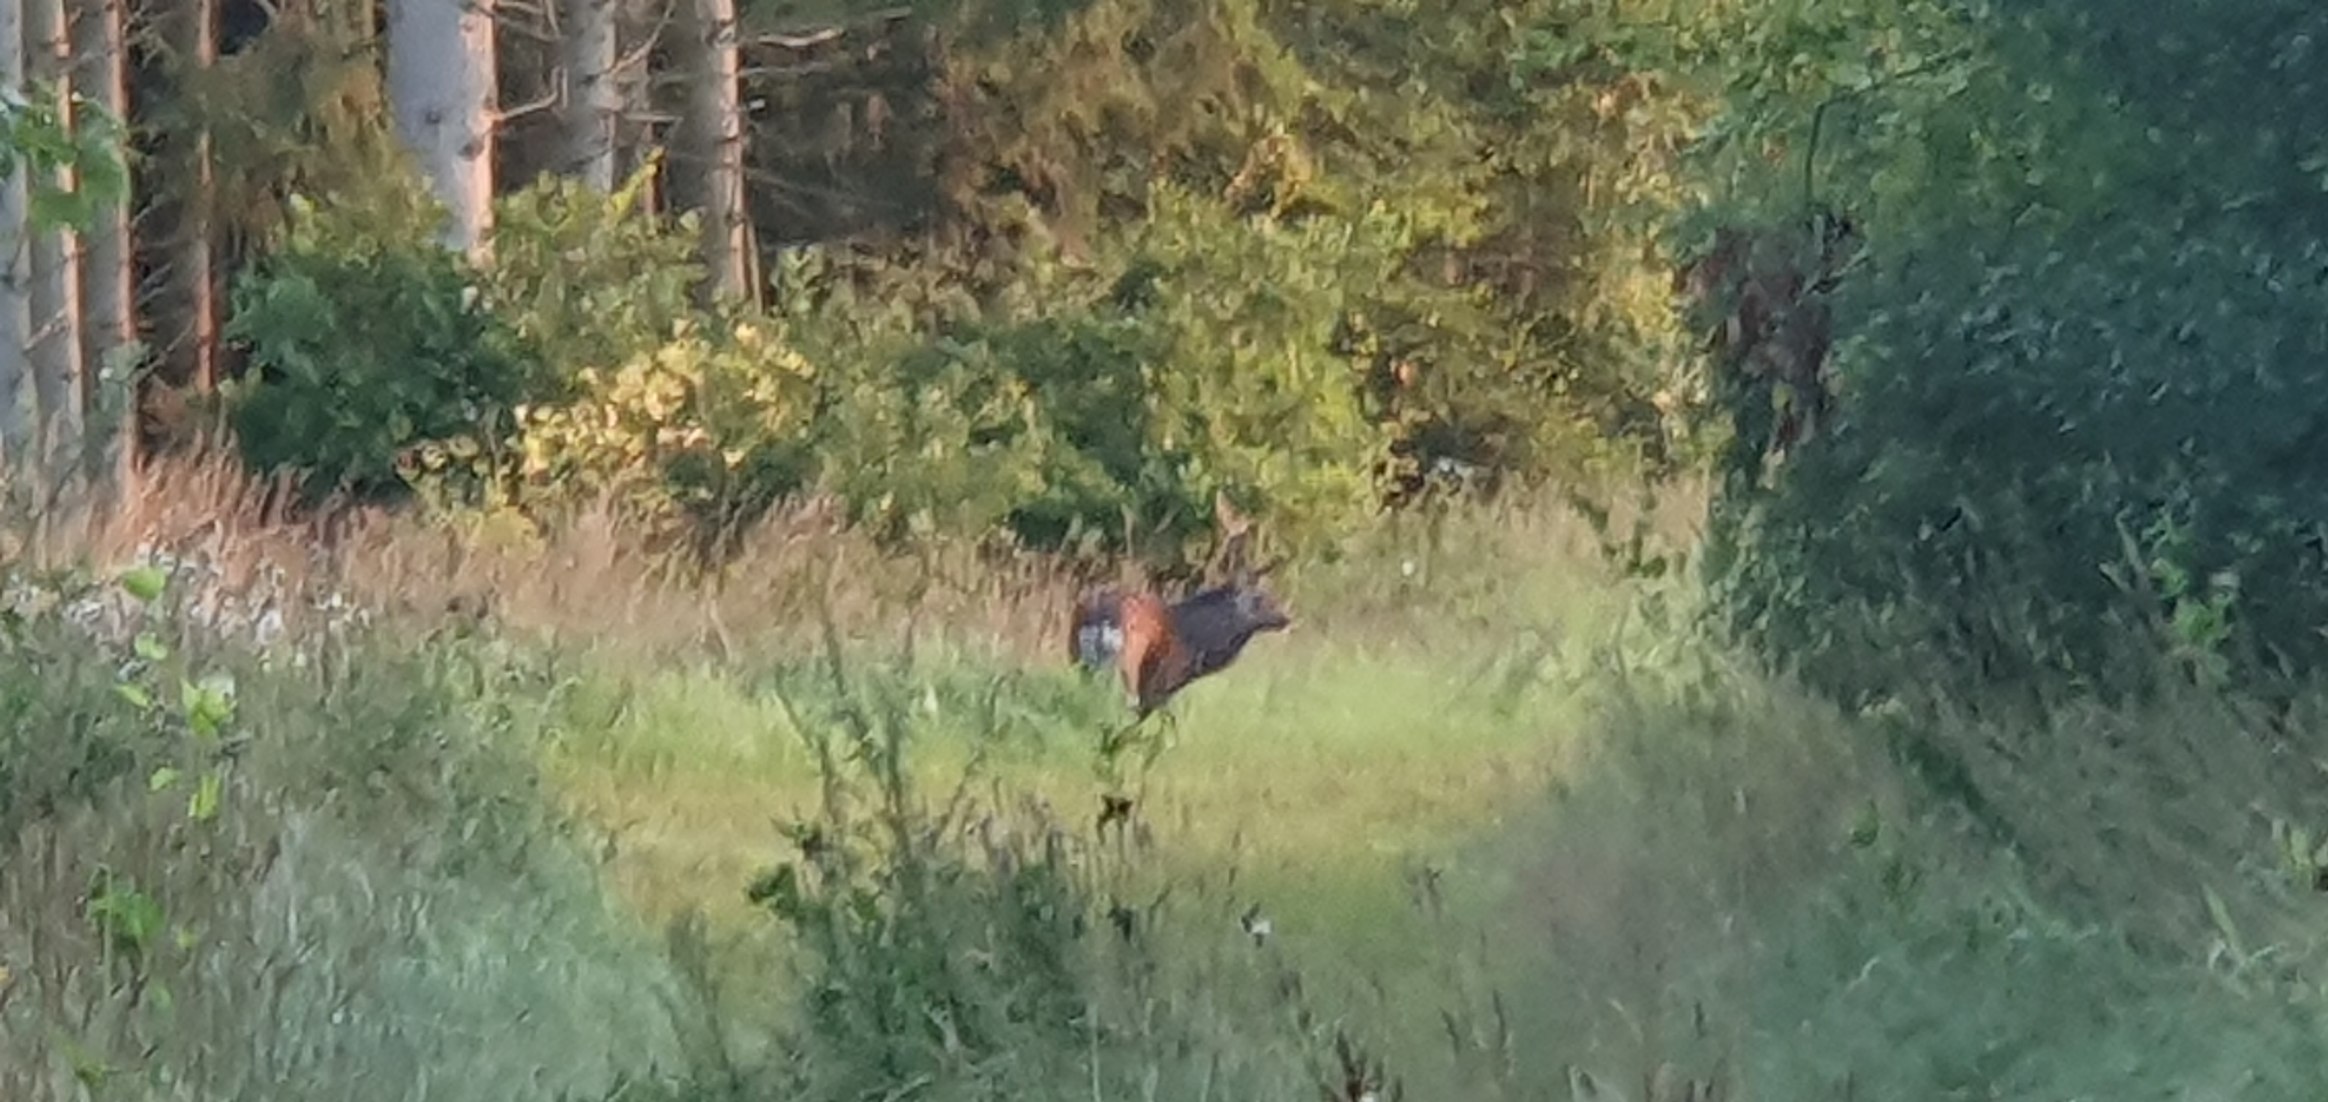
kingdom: Animalia
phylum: Chordata
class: Mammalia
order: Artiodactyla
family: Cervidae
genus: Cervus
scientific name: Cervus elaphus
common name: Krondyr
